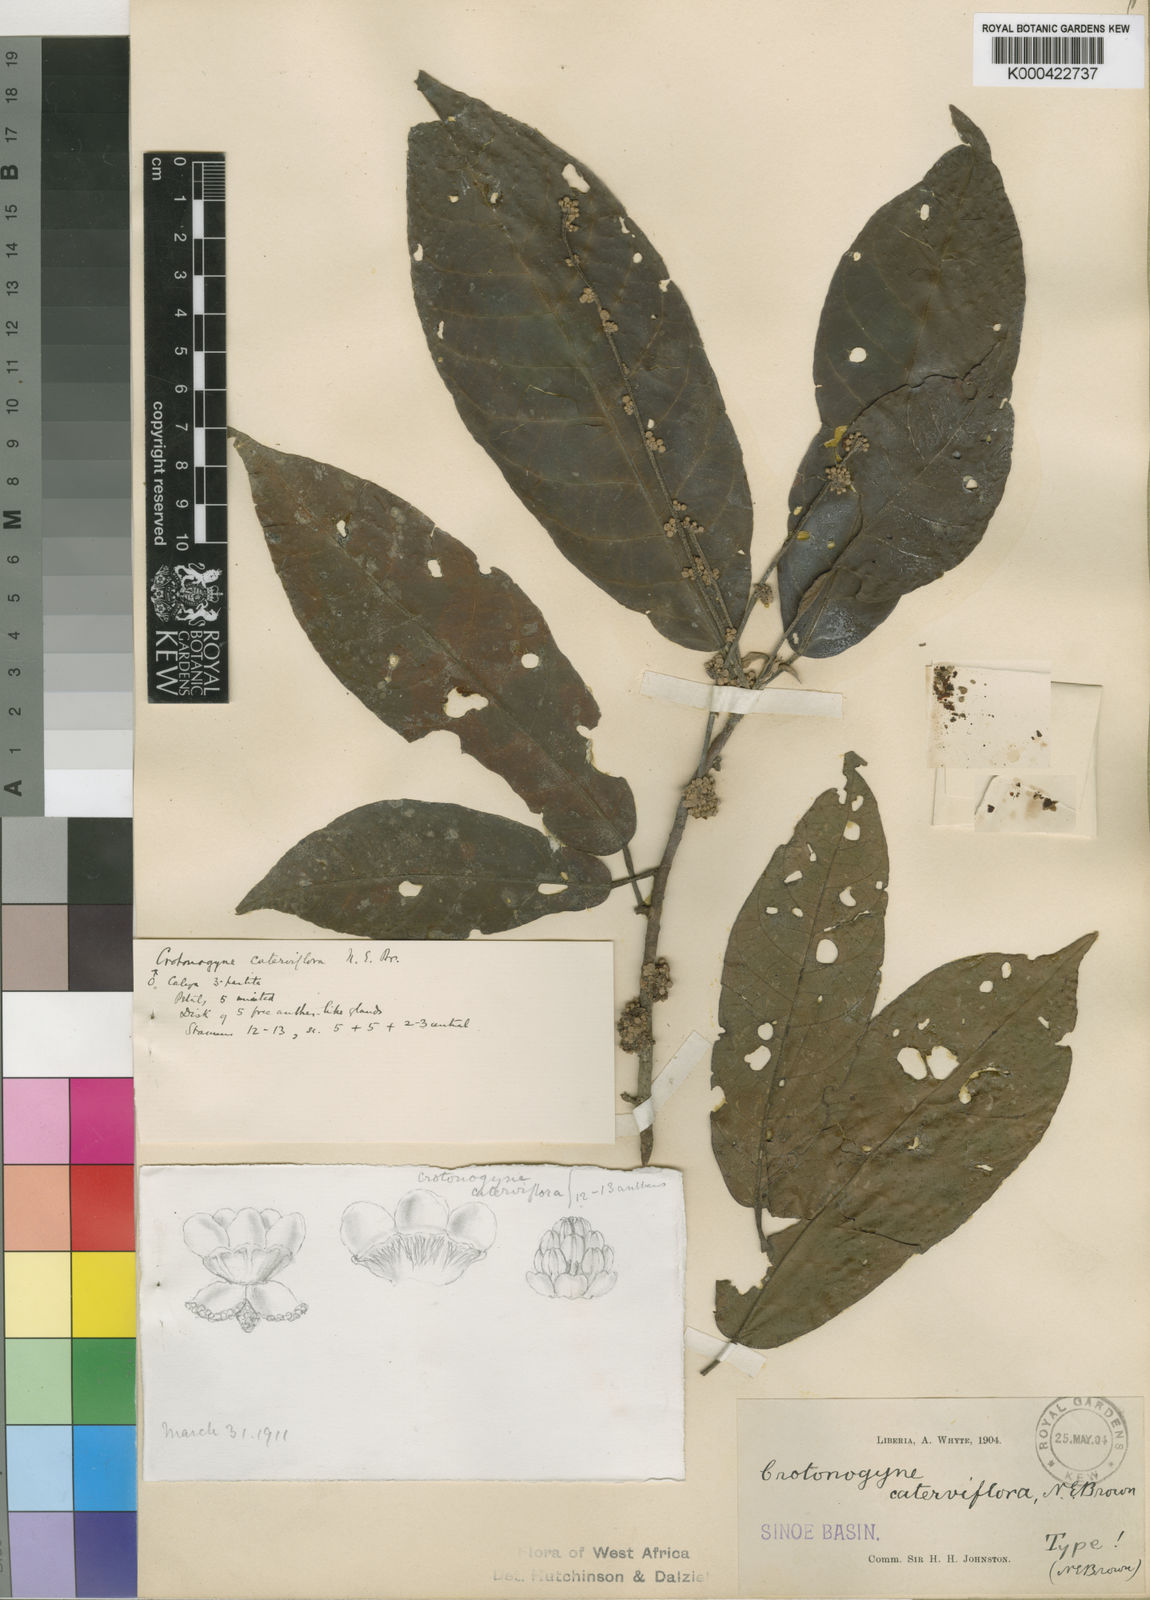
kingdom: Plantae
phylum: Tracheophyta
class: Magnoliopsida
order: Malpighiales
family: Euphorbiaceae
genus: Crotonogyne
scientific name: Crotonogyne caterviflora
